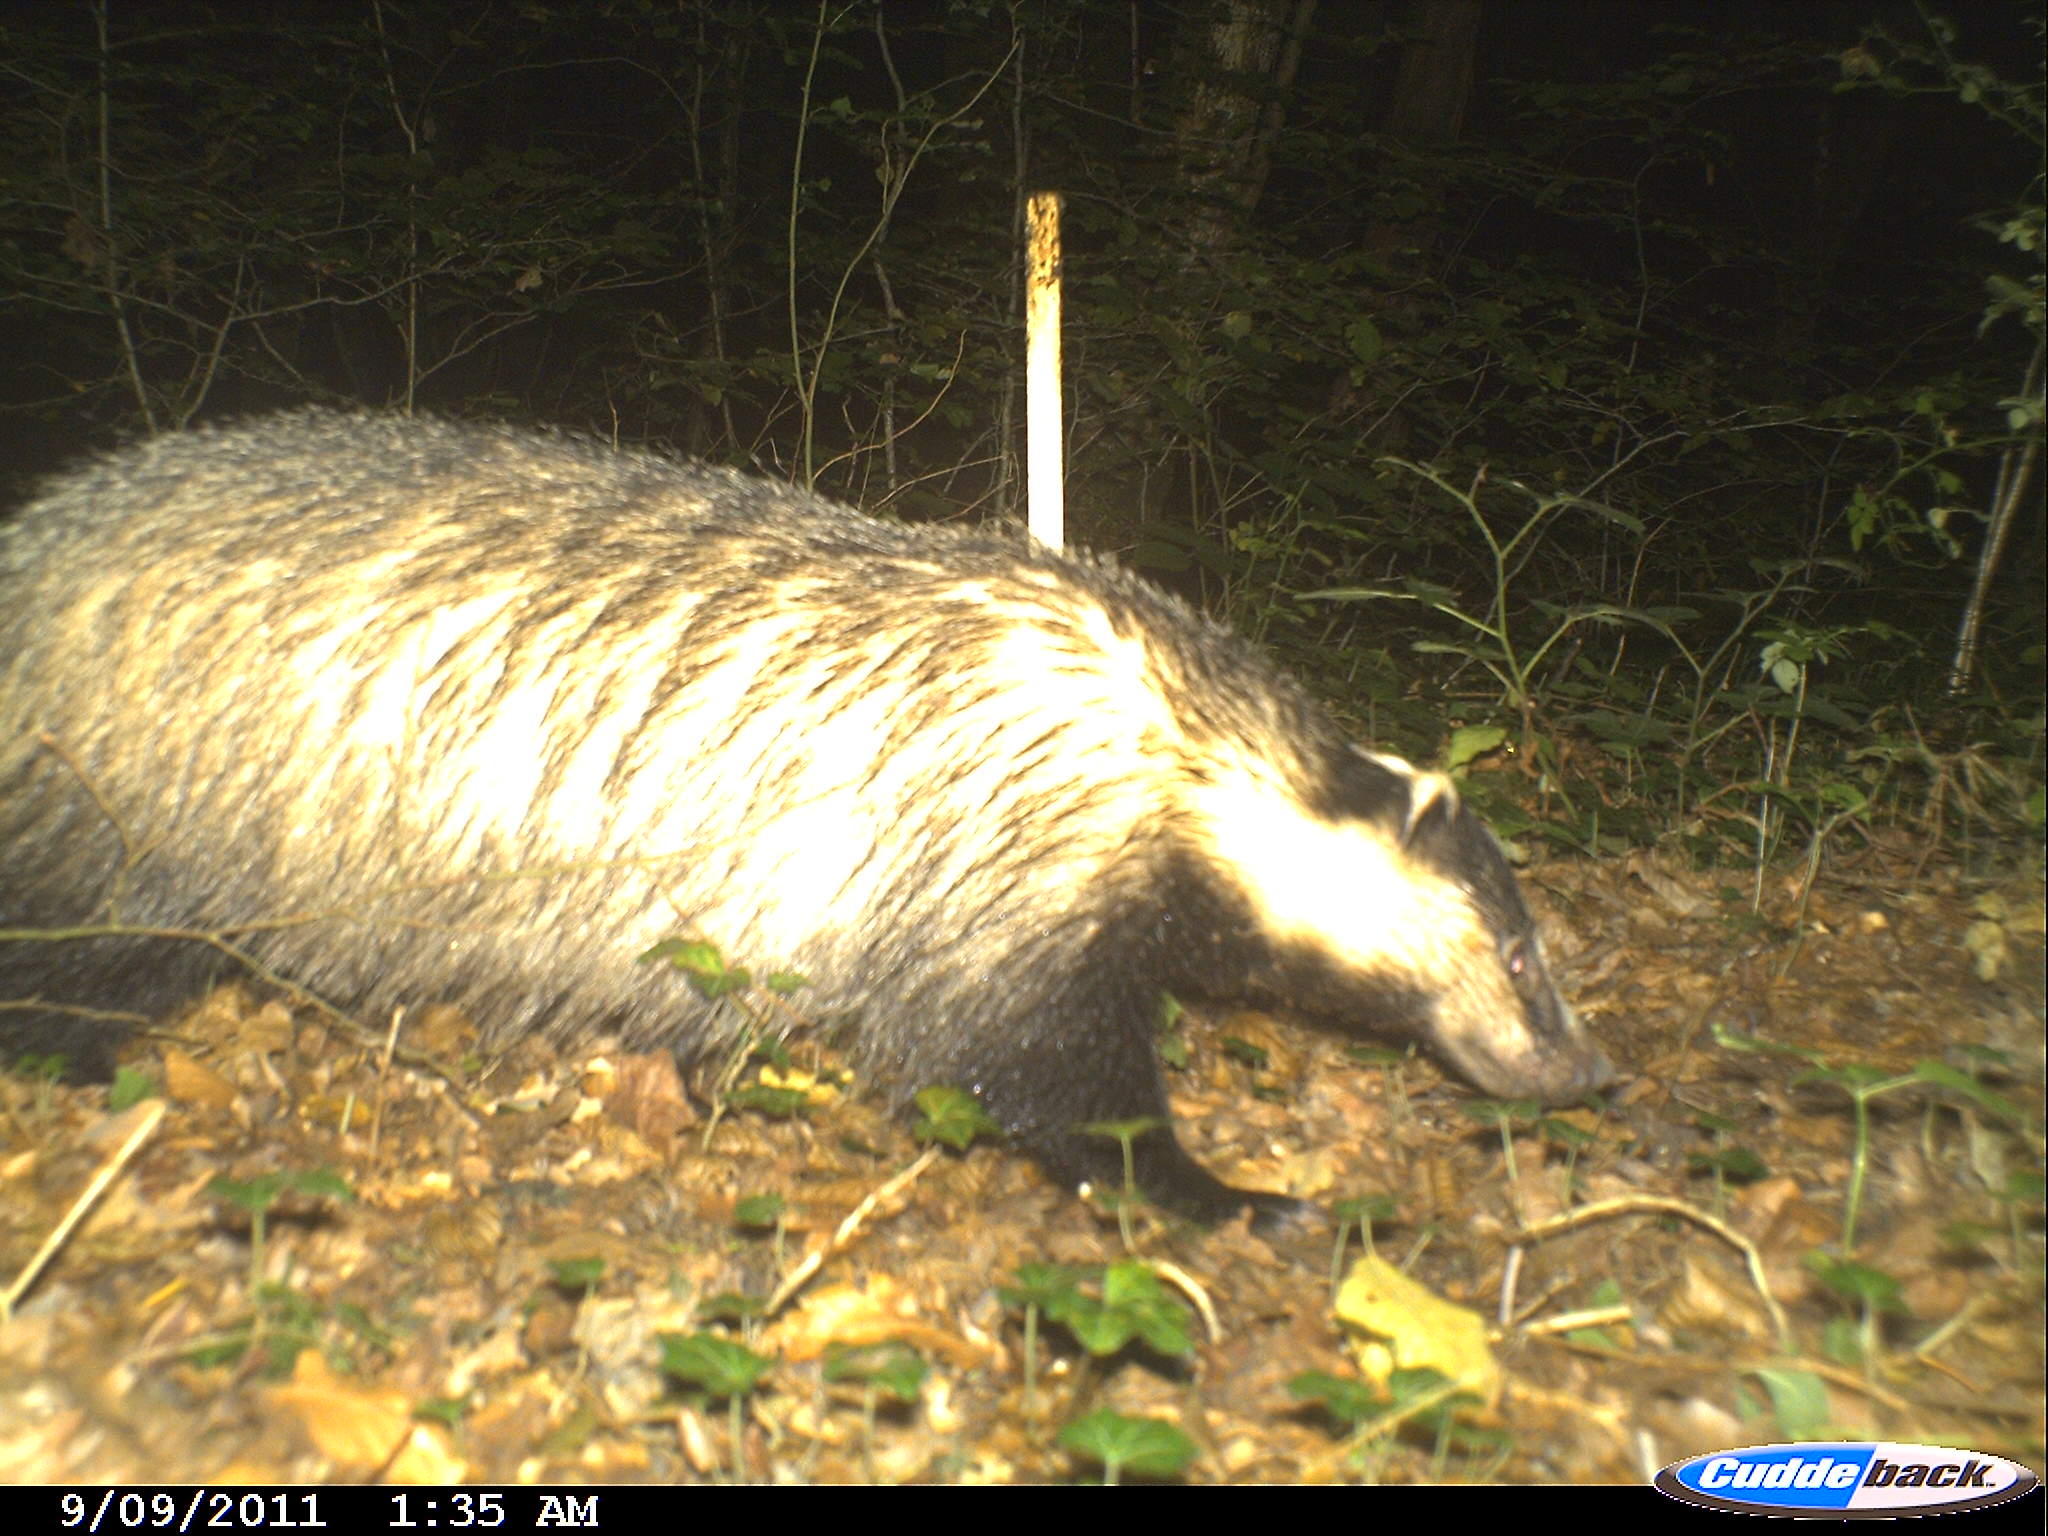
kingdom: Animalia
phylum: Chordata
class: Mammalia
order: Carnivora
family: Mustelidae
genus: Meles
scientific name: Meles meles
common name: Eurasian badger
